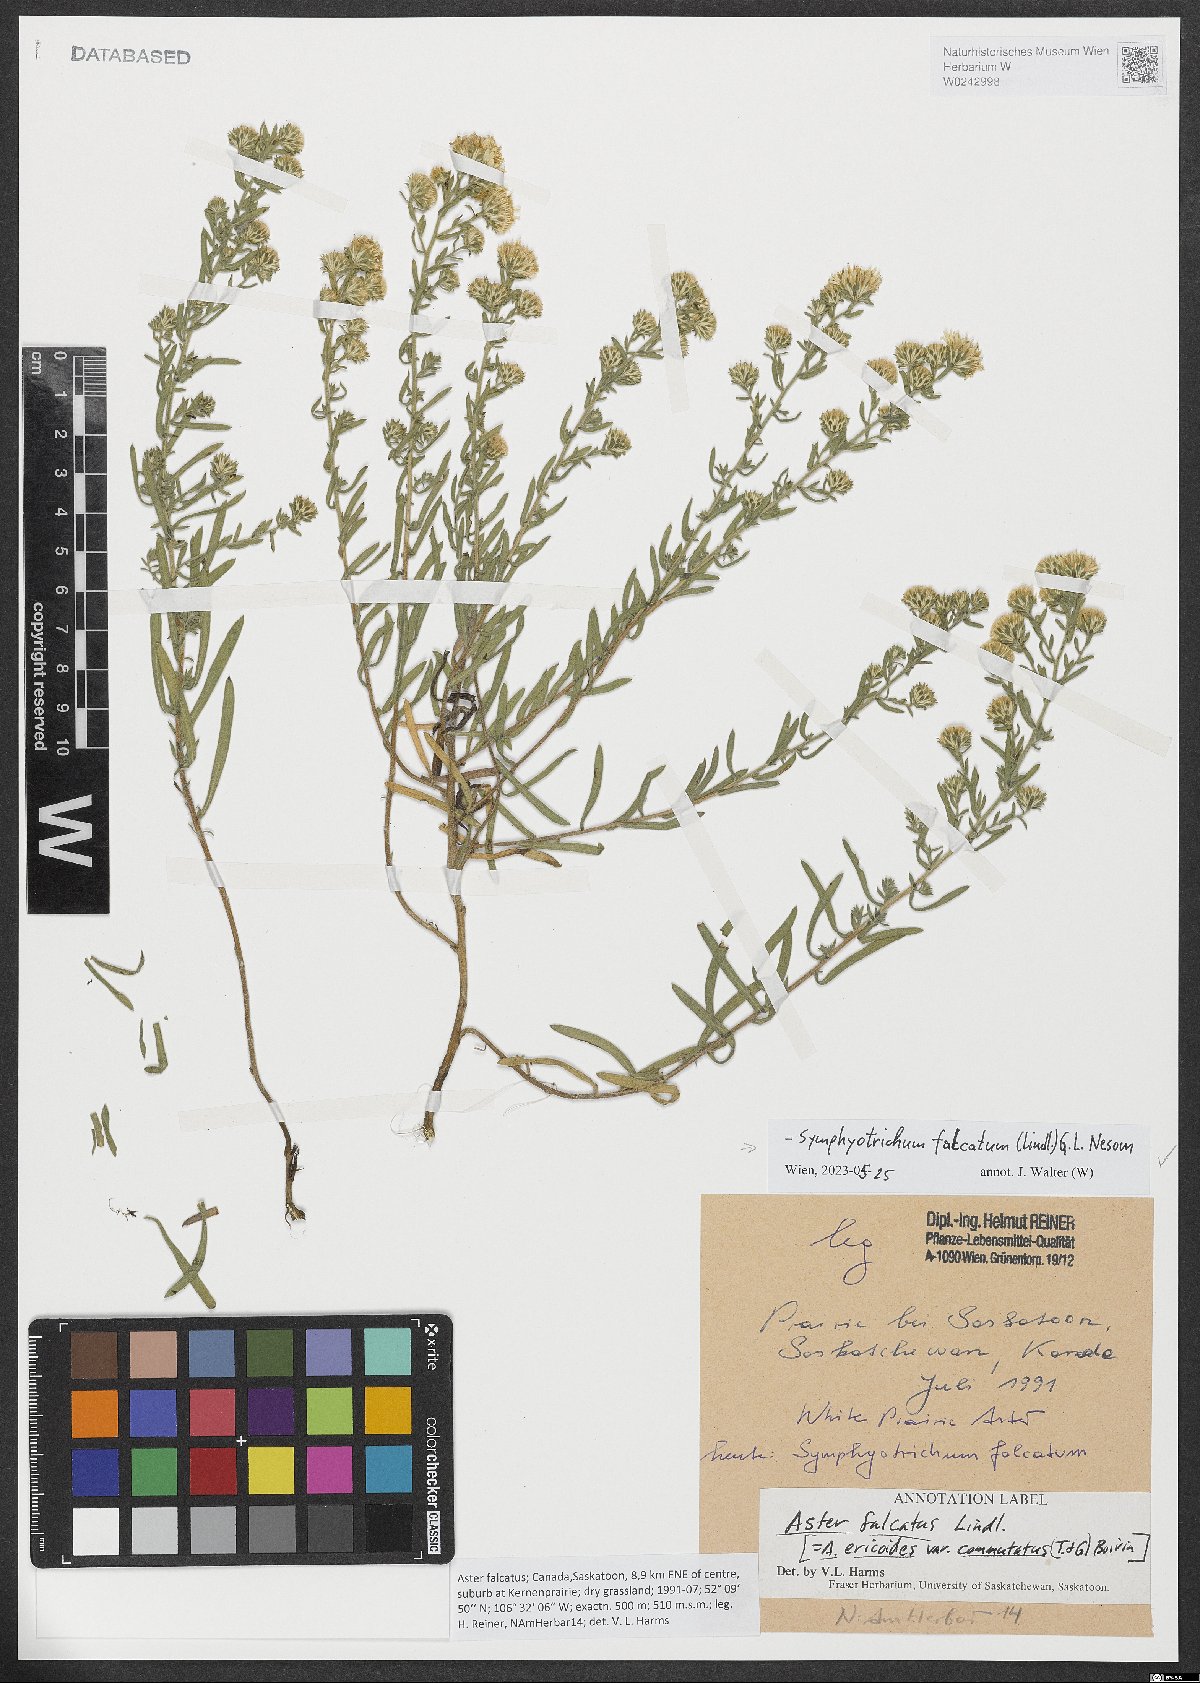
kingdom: Plantae
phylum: Tracheophyta
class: Magnoliopsida
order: Asterales
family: Asteraceae
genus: Symphyotrichum
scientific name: Symphyotrichum falcatum
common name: Creeping white prairie aster
